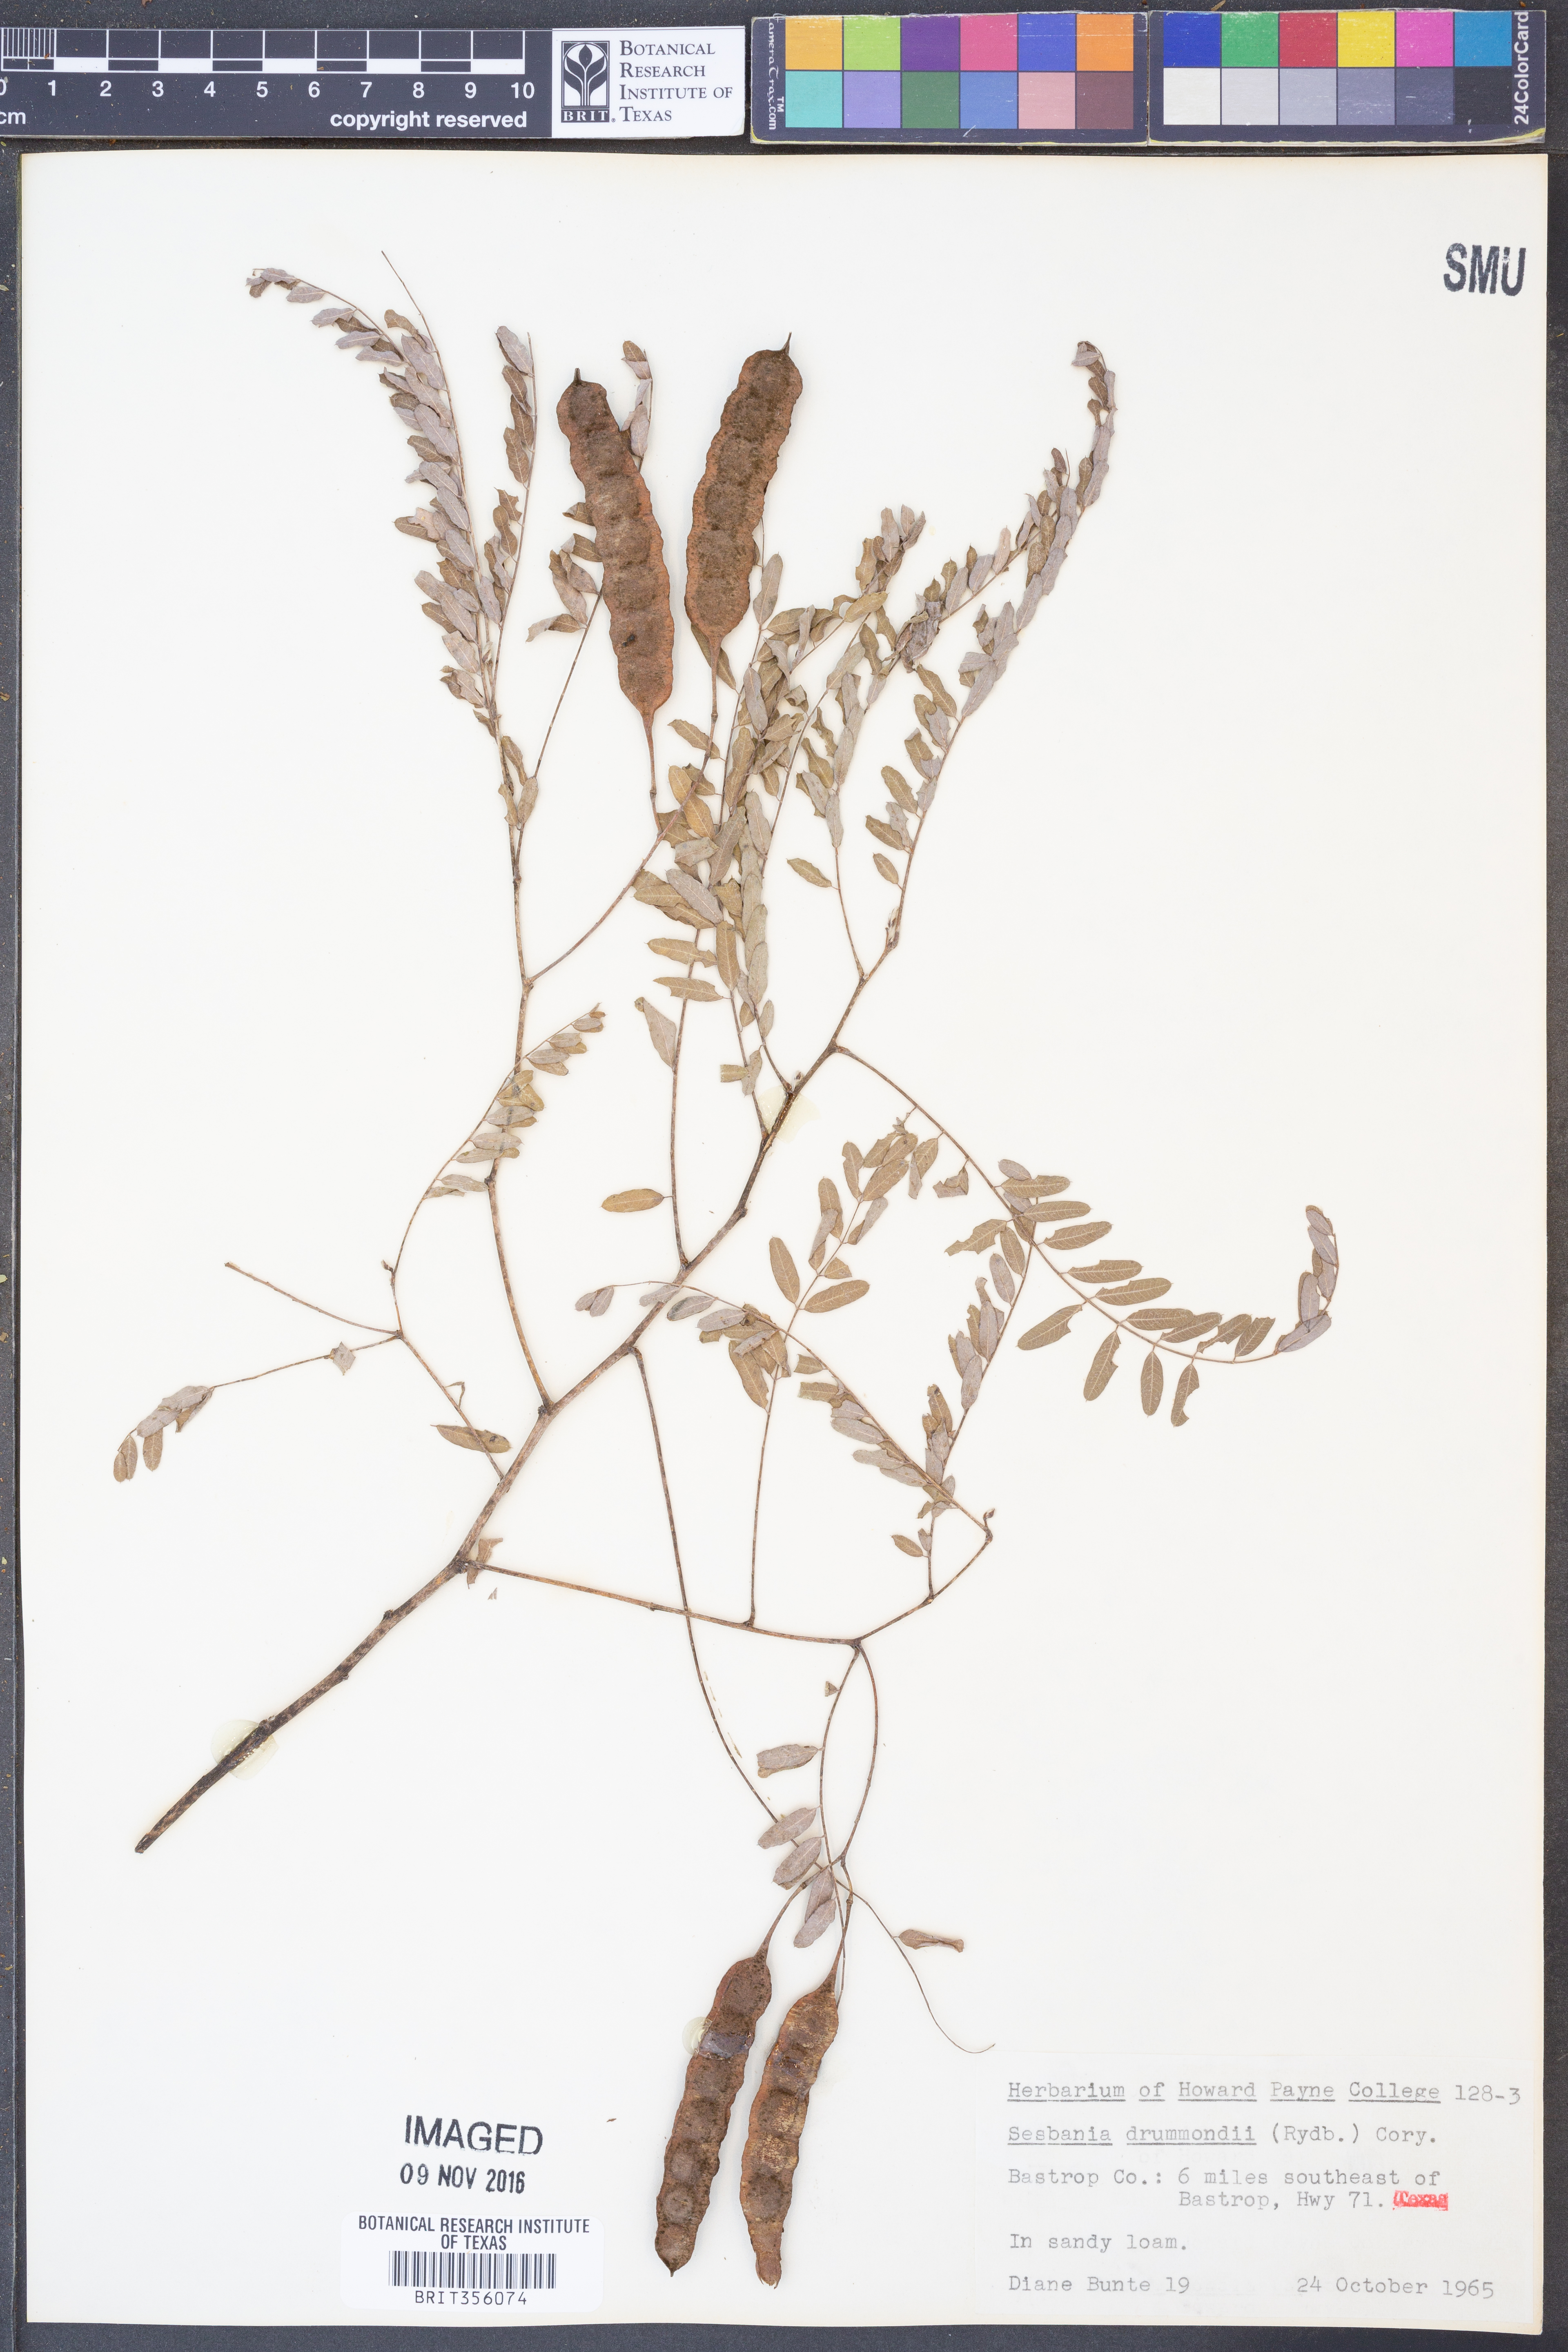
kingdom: Plantae
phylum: Tracheophyta
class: Magnoliopsida
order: Fabales
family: Fabaceae
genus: Sesbania
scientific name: Sesbania drummondii
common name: Poison-bean
